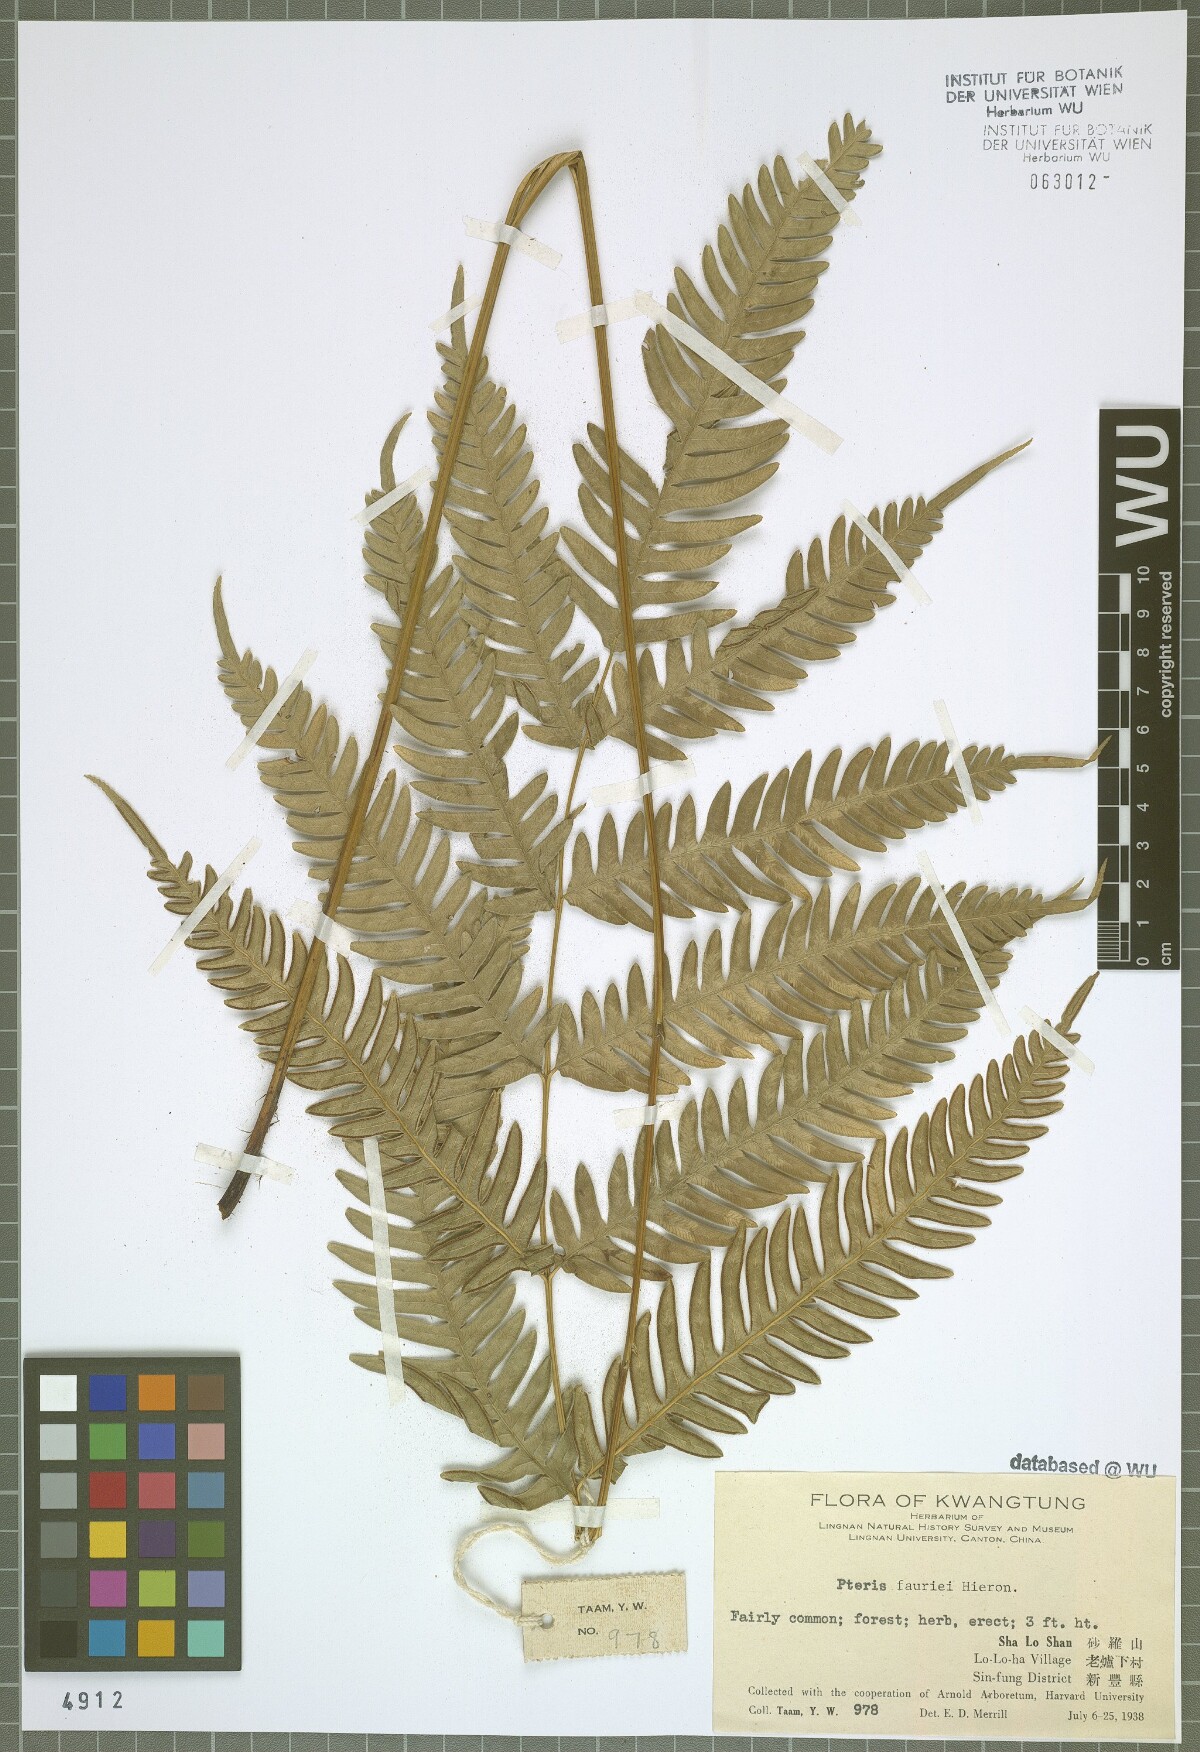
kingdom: Plantae
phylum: Tracheophyta
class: Polypodiopsida
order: Polypodiales
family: Pteridaceae
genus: Pteris
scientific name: Pteris fauriei
